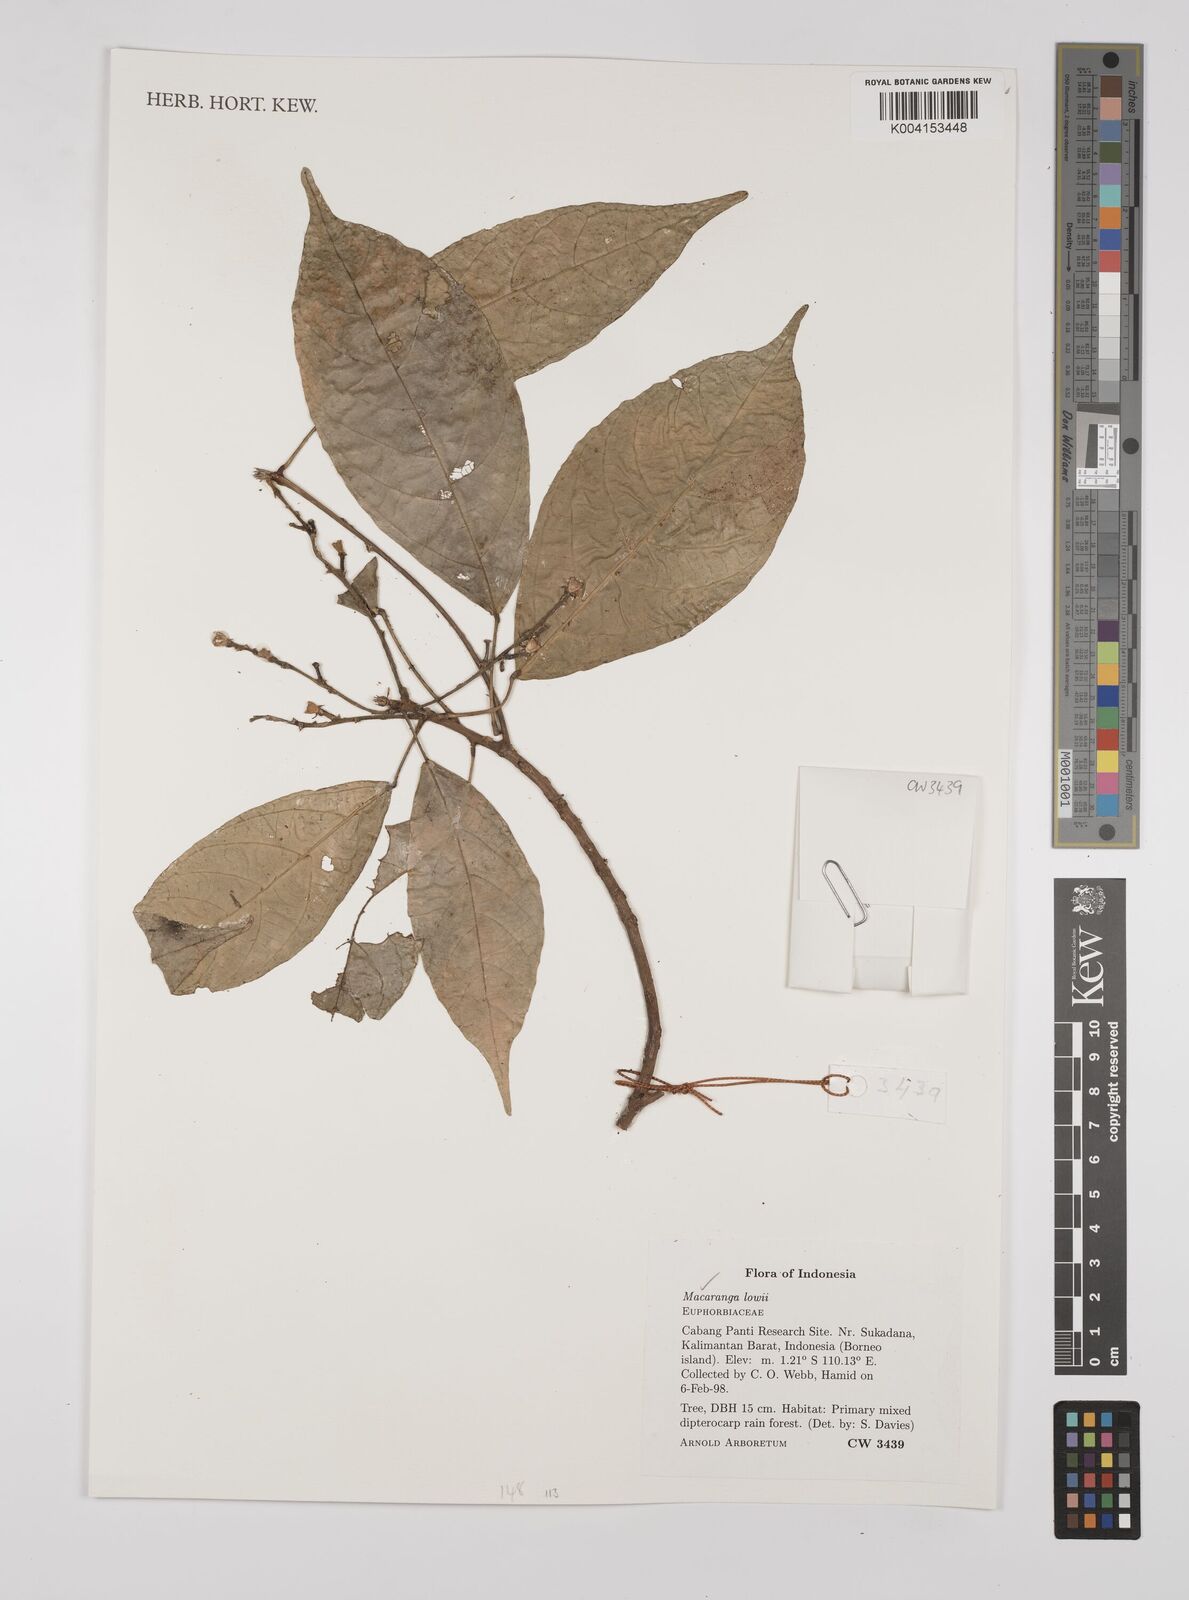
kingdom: Plantae
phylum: Tracheophyta
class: Magnoliopsida
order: Malpighiales
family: Euphorbiaceae
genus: Macaranga
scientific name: Macaranga lowii
